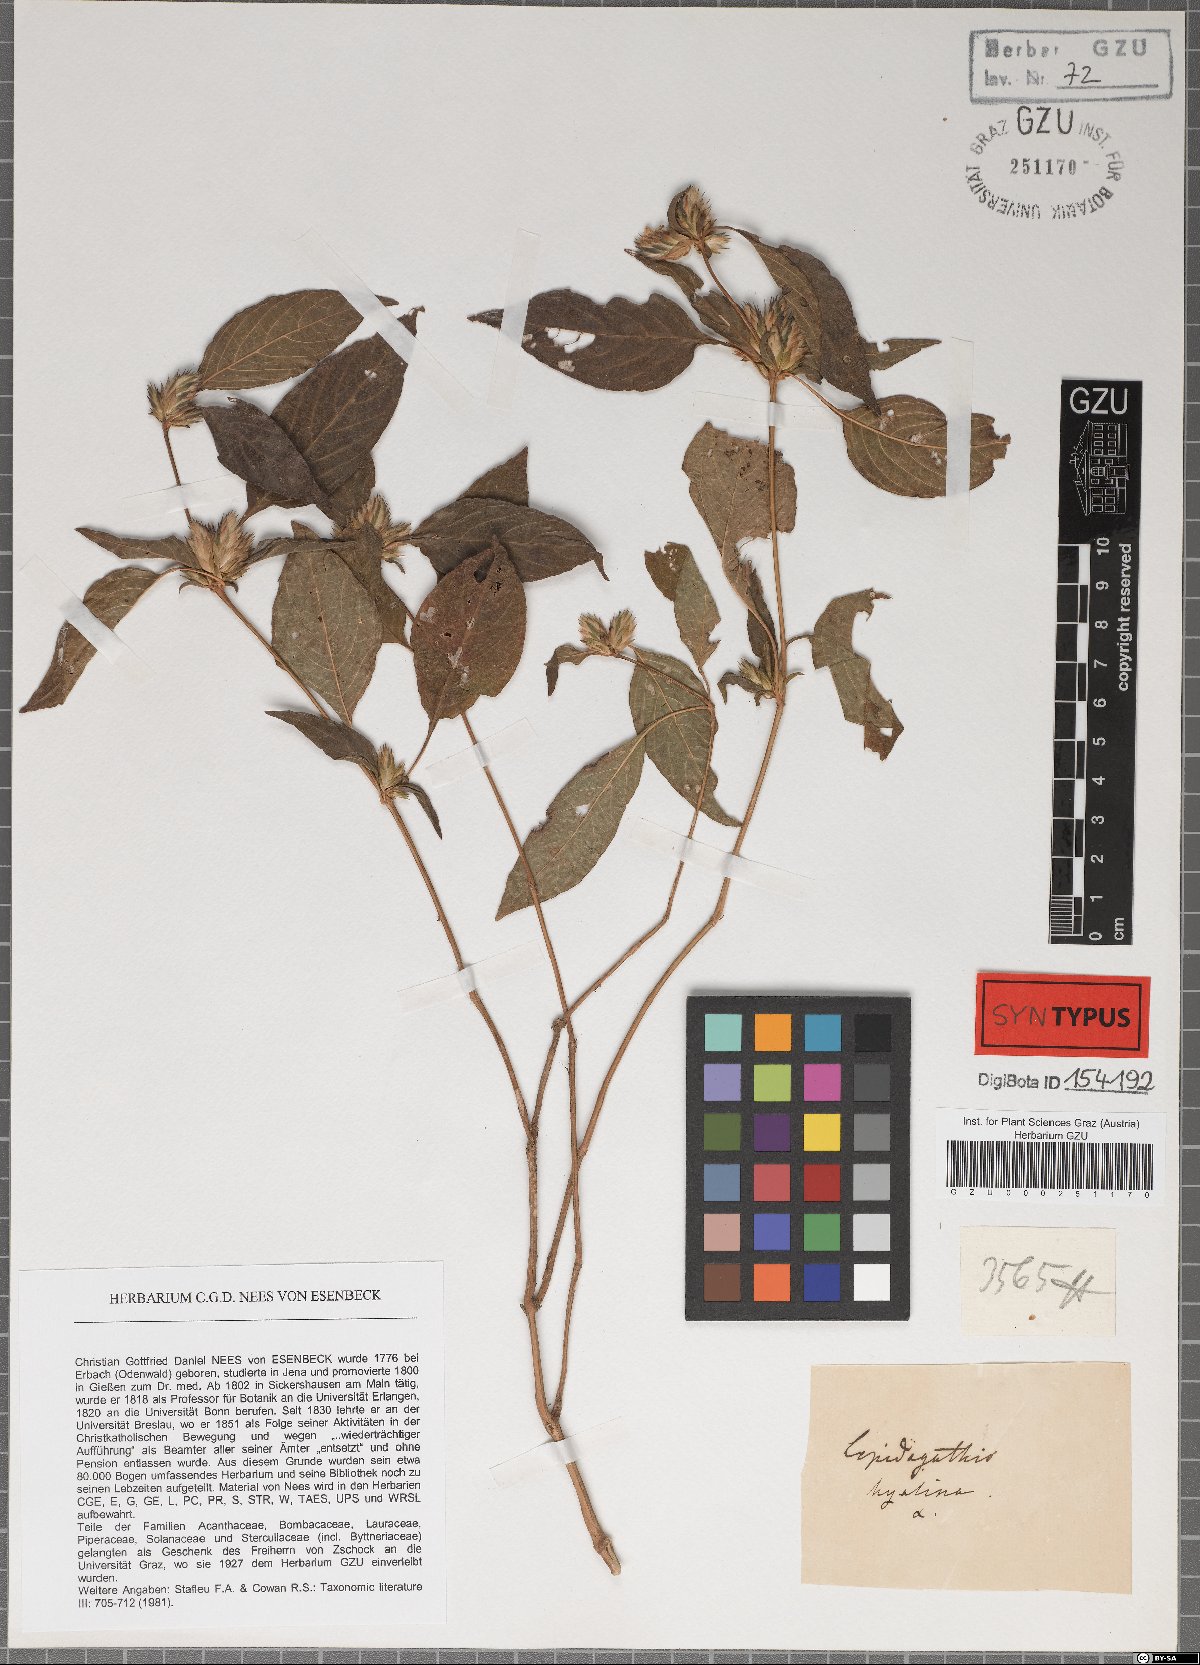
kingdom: Plantae
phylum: Tracheophyta
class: Magnoliopsida
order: Lamiales
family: Acanthaceae
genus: Lepidagathis
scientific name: Lepidagathis incurva
